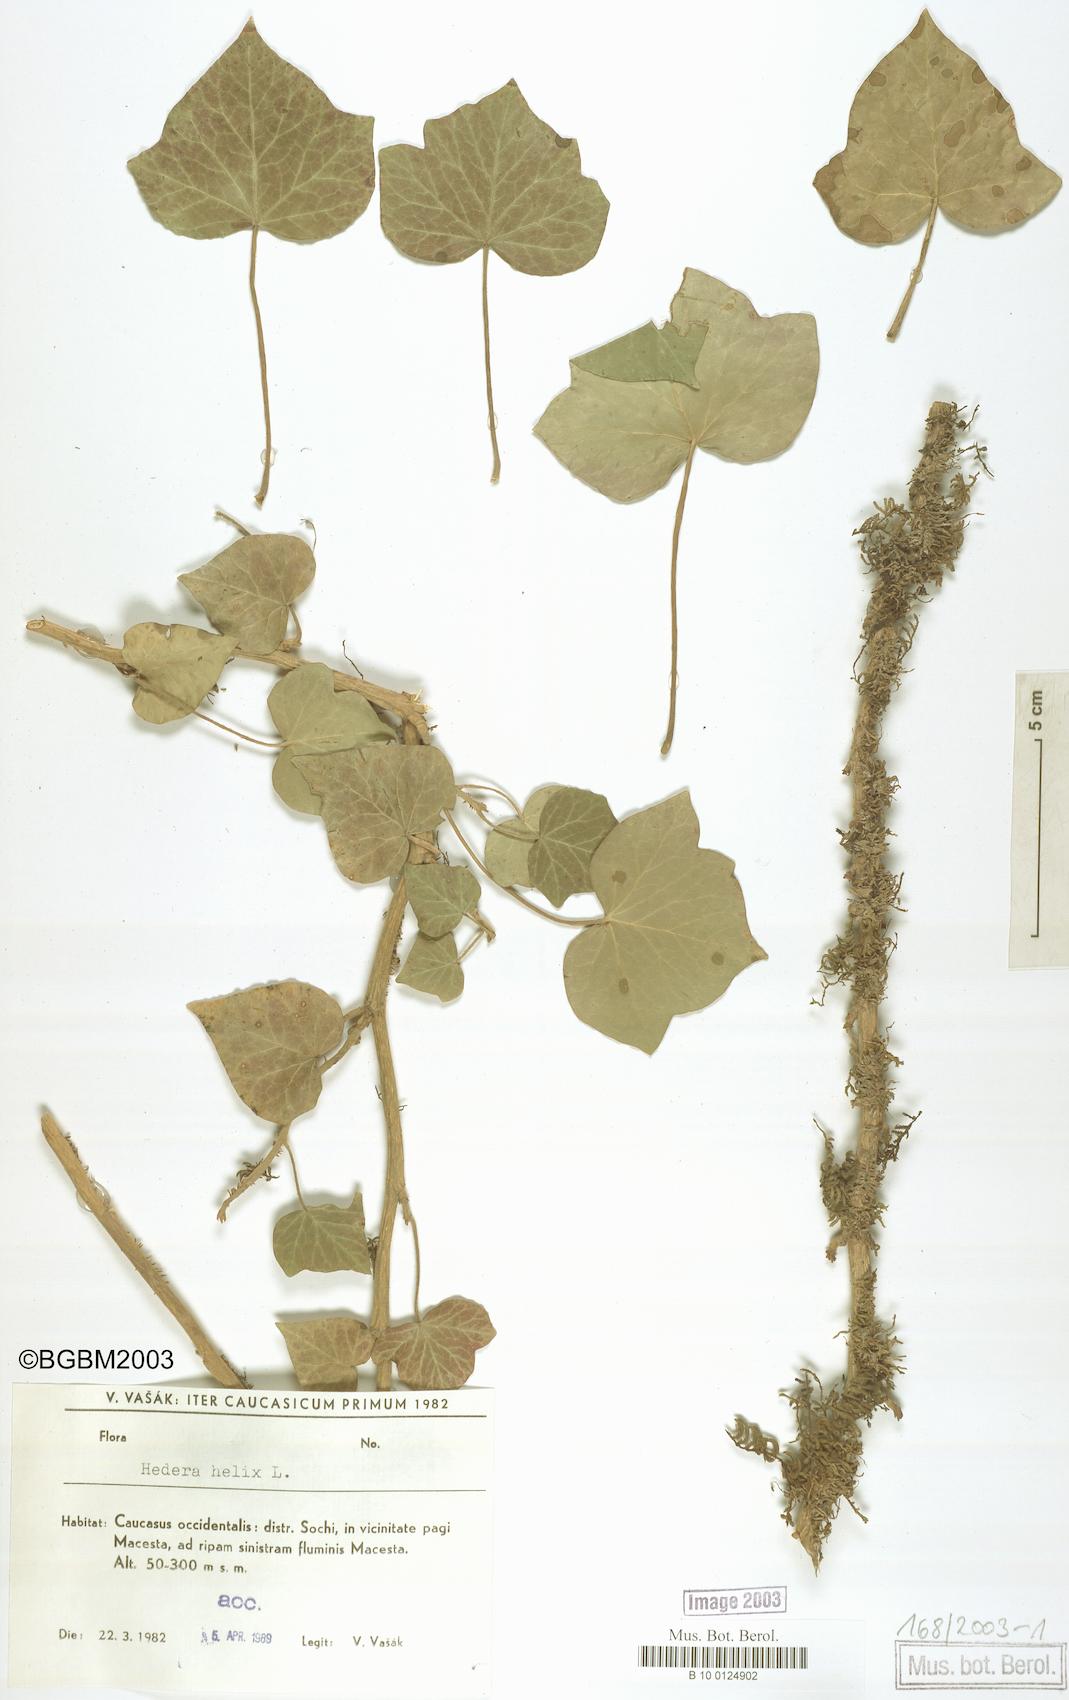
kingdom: Plantae
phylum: Tracheophyta
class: Magnoliopsida
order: Apiales
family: Araliaceae
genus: Hedera
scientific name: Hedera helix
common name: Ivy
